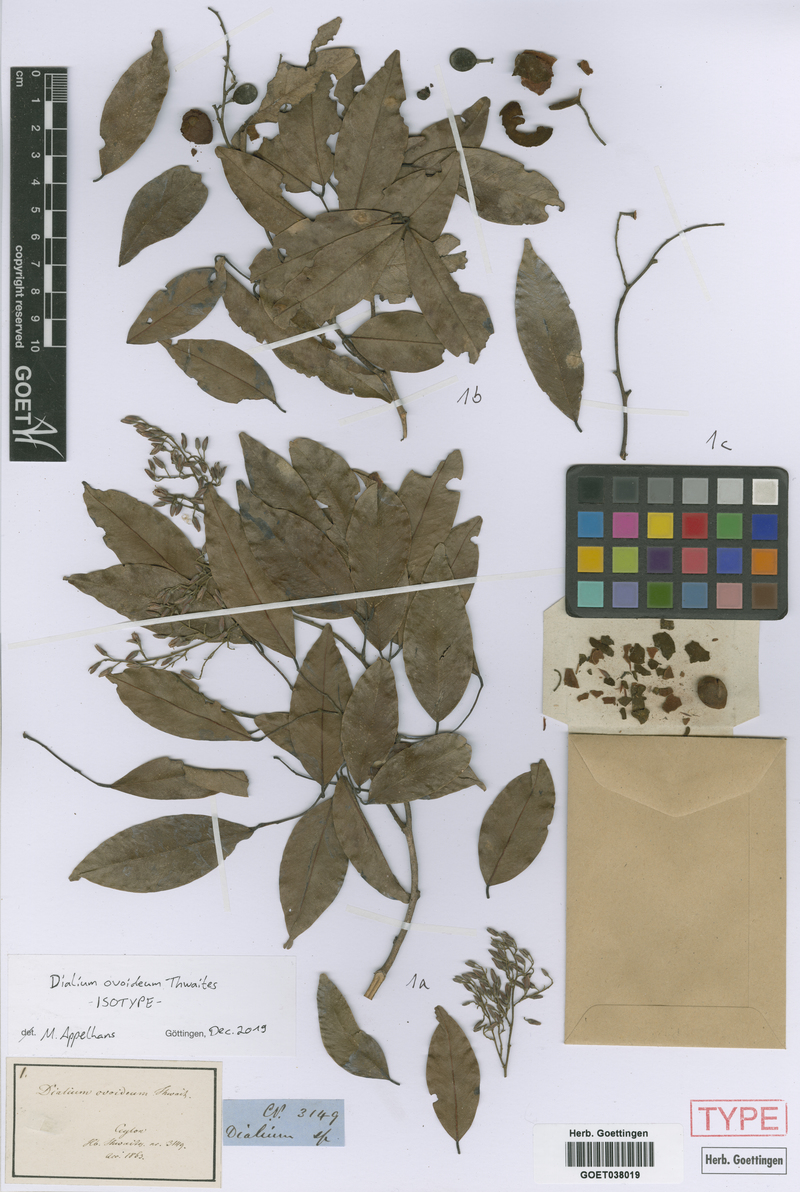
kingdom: Plantae
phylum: Tracheophyta
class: Magnoliopsida
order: Fabales
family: Fabaceae
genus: Dialium
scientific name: Dialium ovoideum
